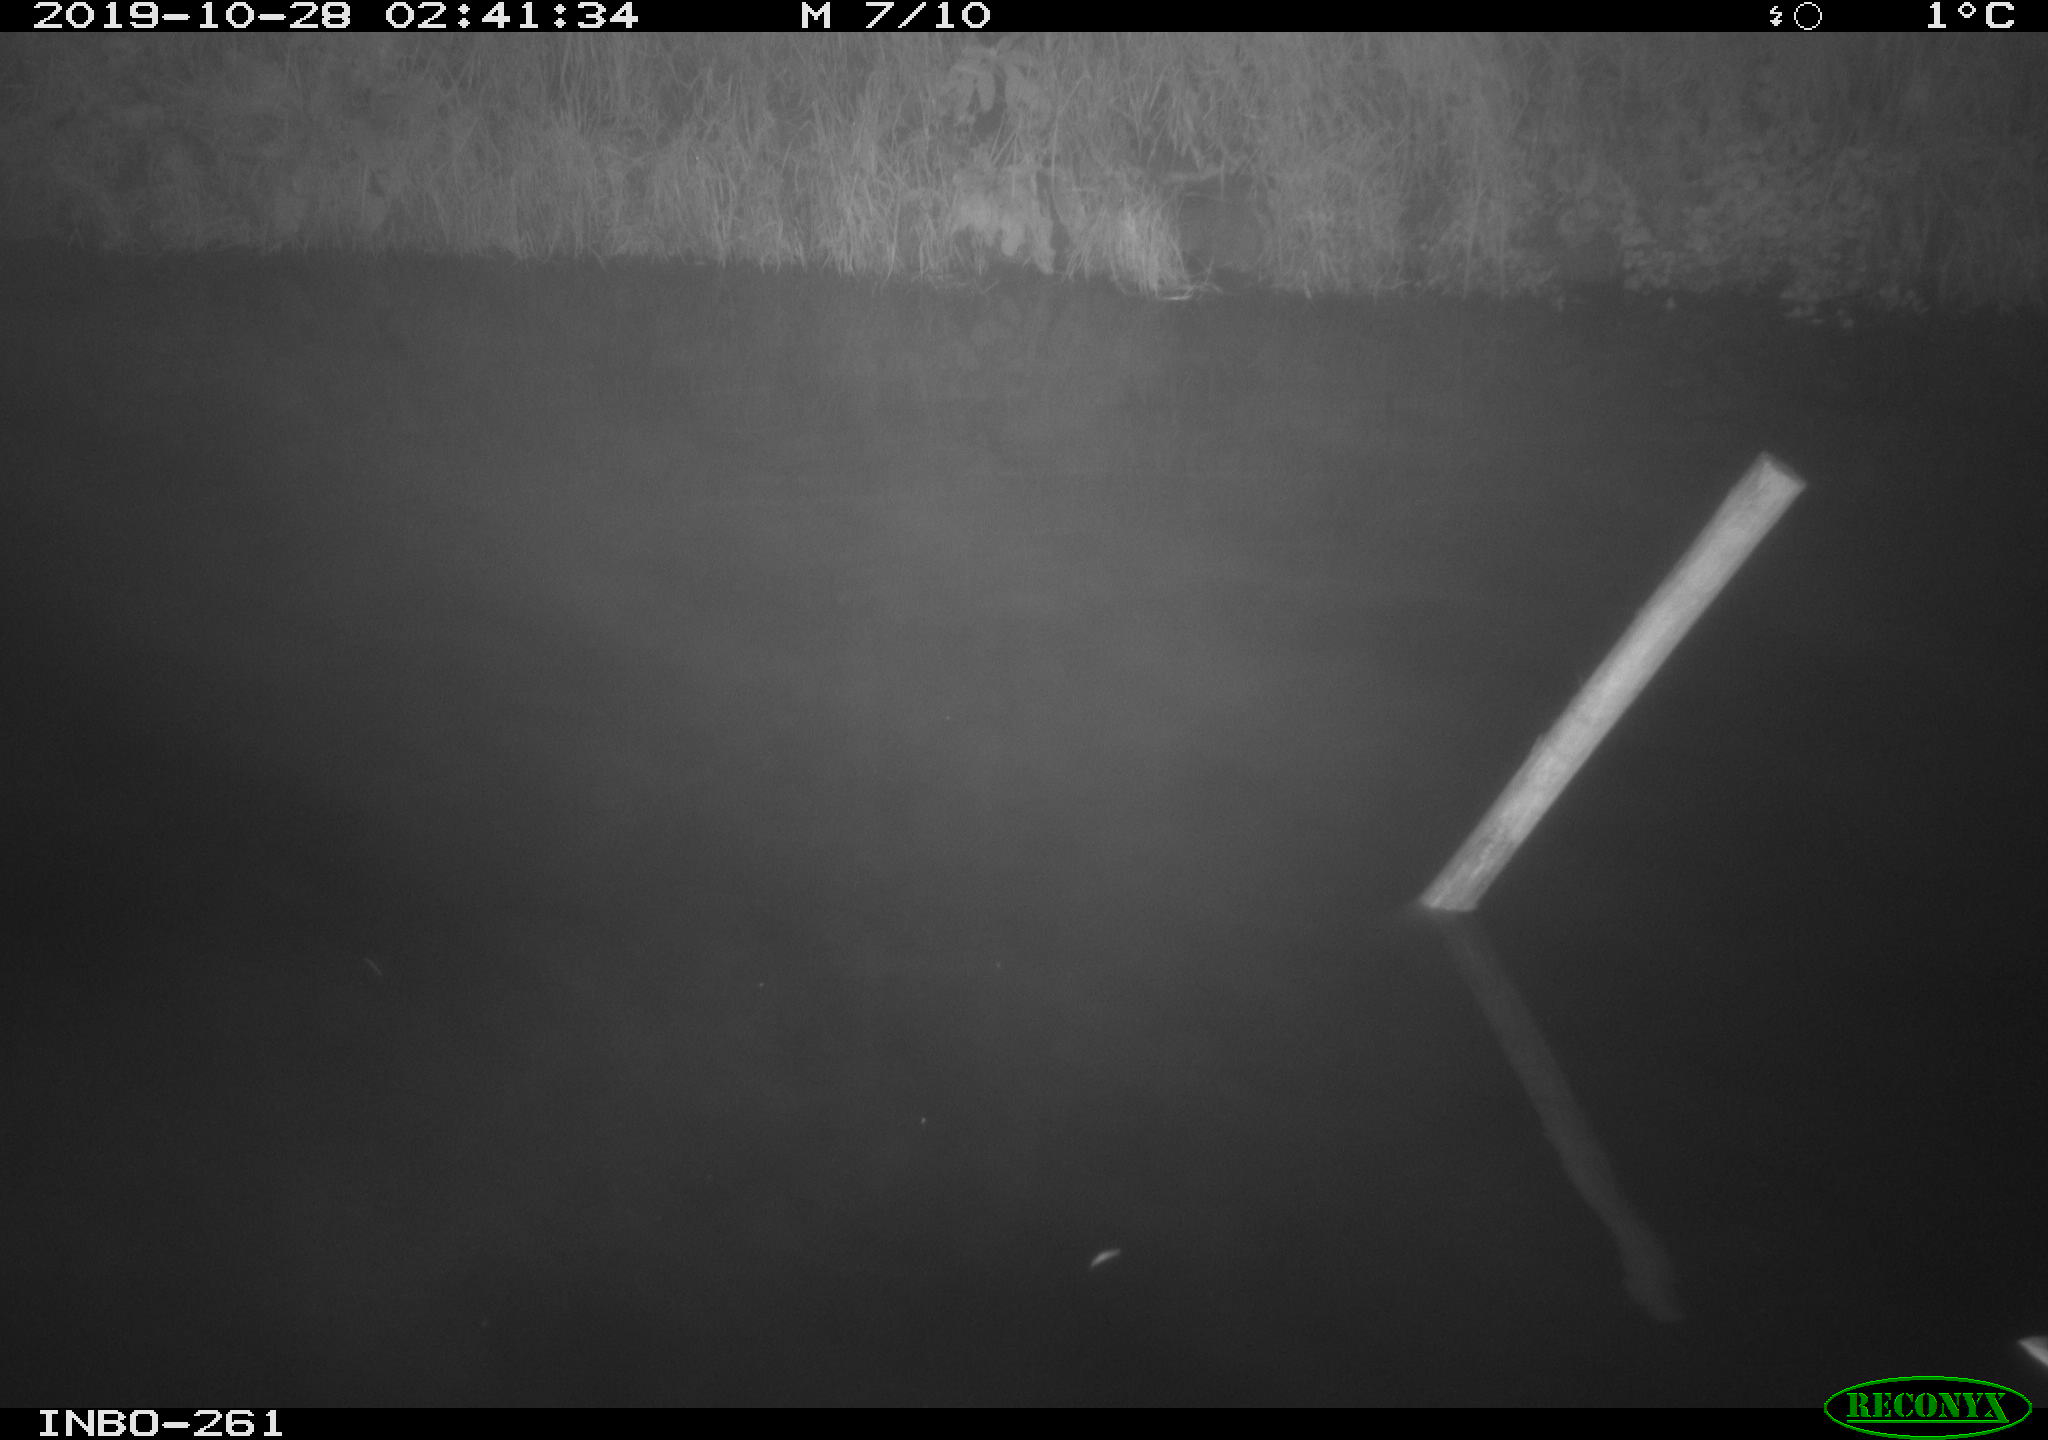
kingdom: Animalia
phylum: Chordata
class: Aves
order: Anseriformes
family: Anatidae
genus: Anas
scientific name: Anas platyrhynchos
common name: Mallard
